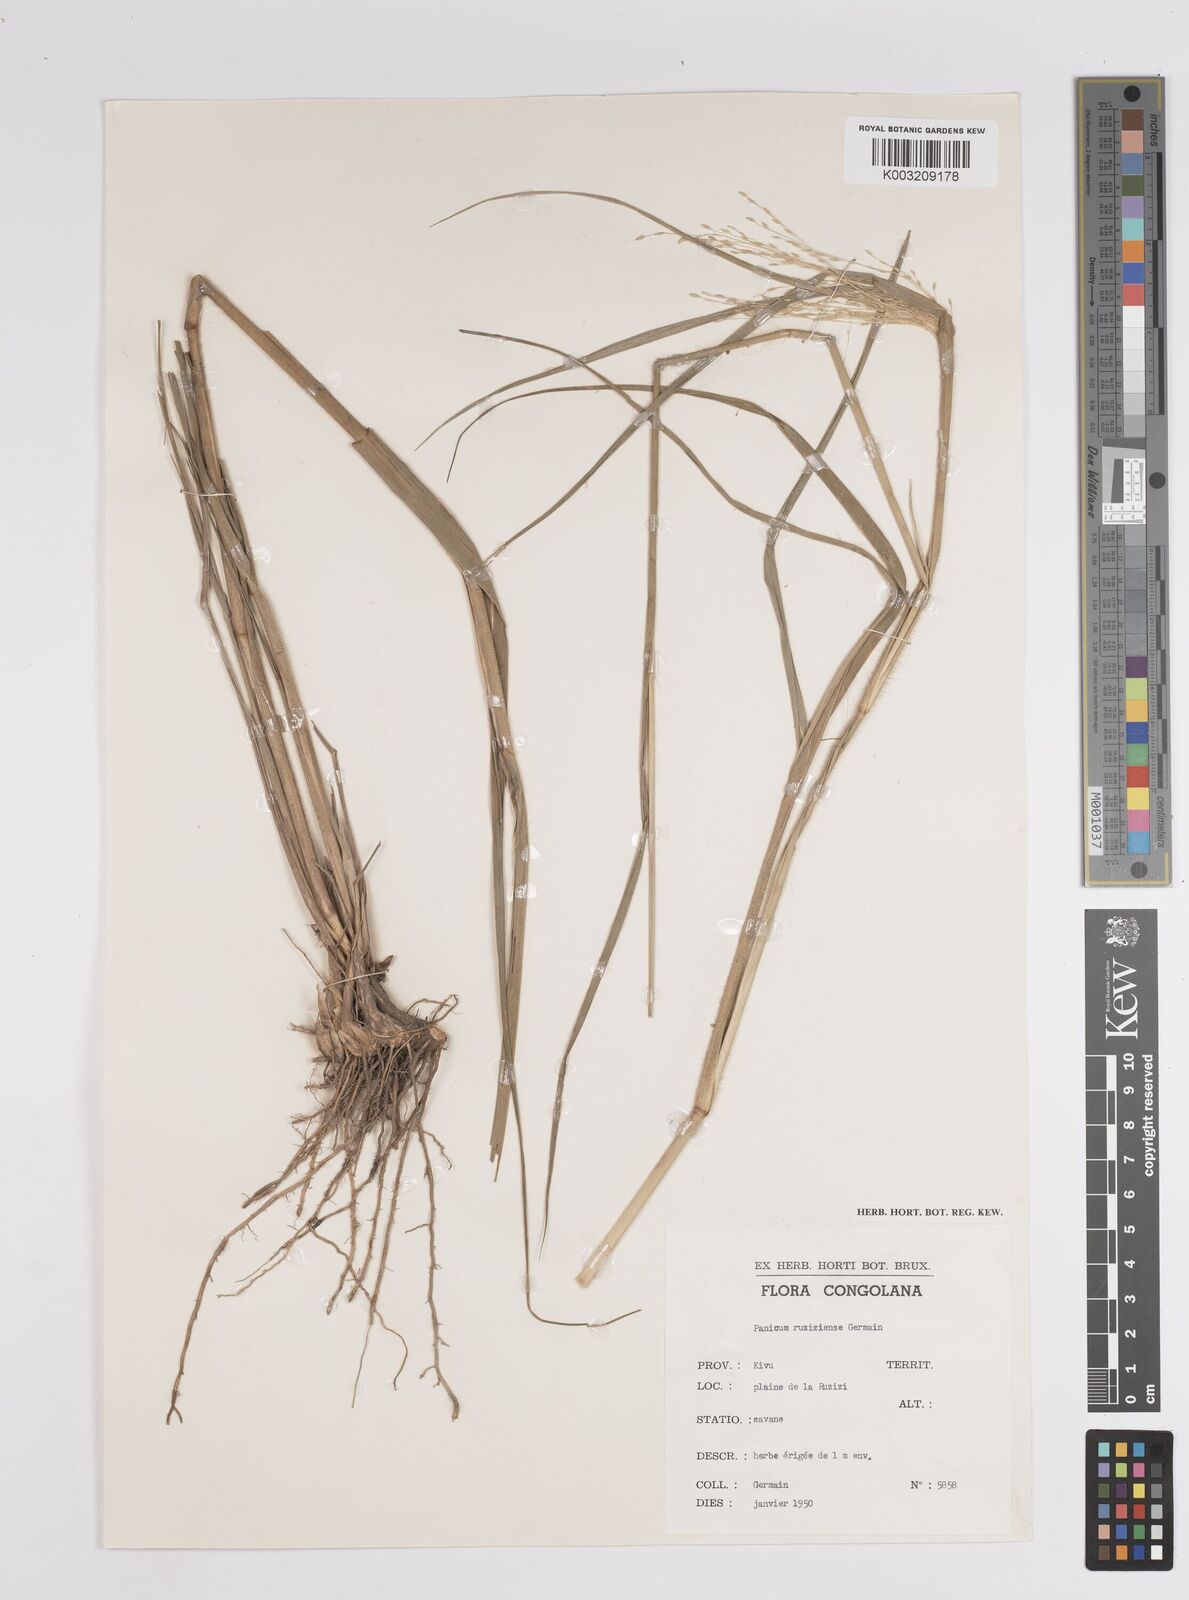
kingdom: Plantae
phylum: Tracheophyta
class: Liliopsida
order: Poales
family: Poaceae
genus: Panicum
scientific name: Panicum
